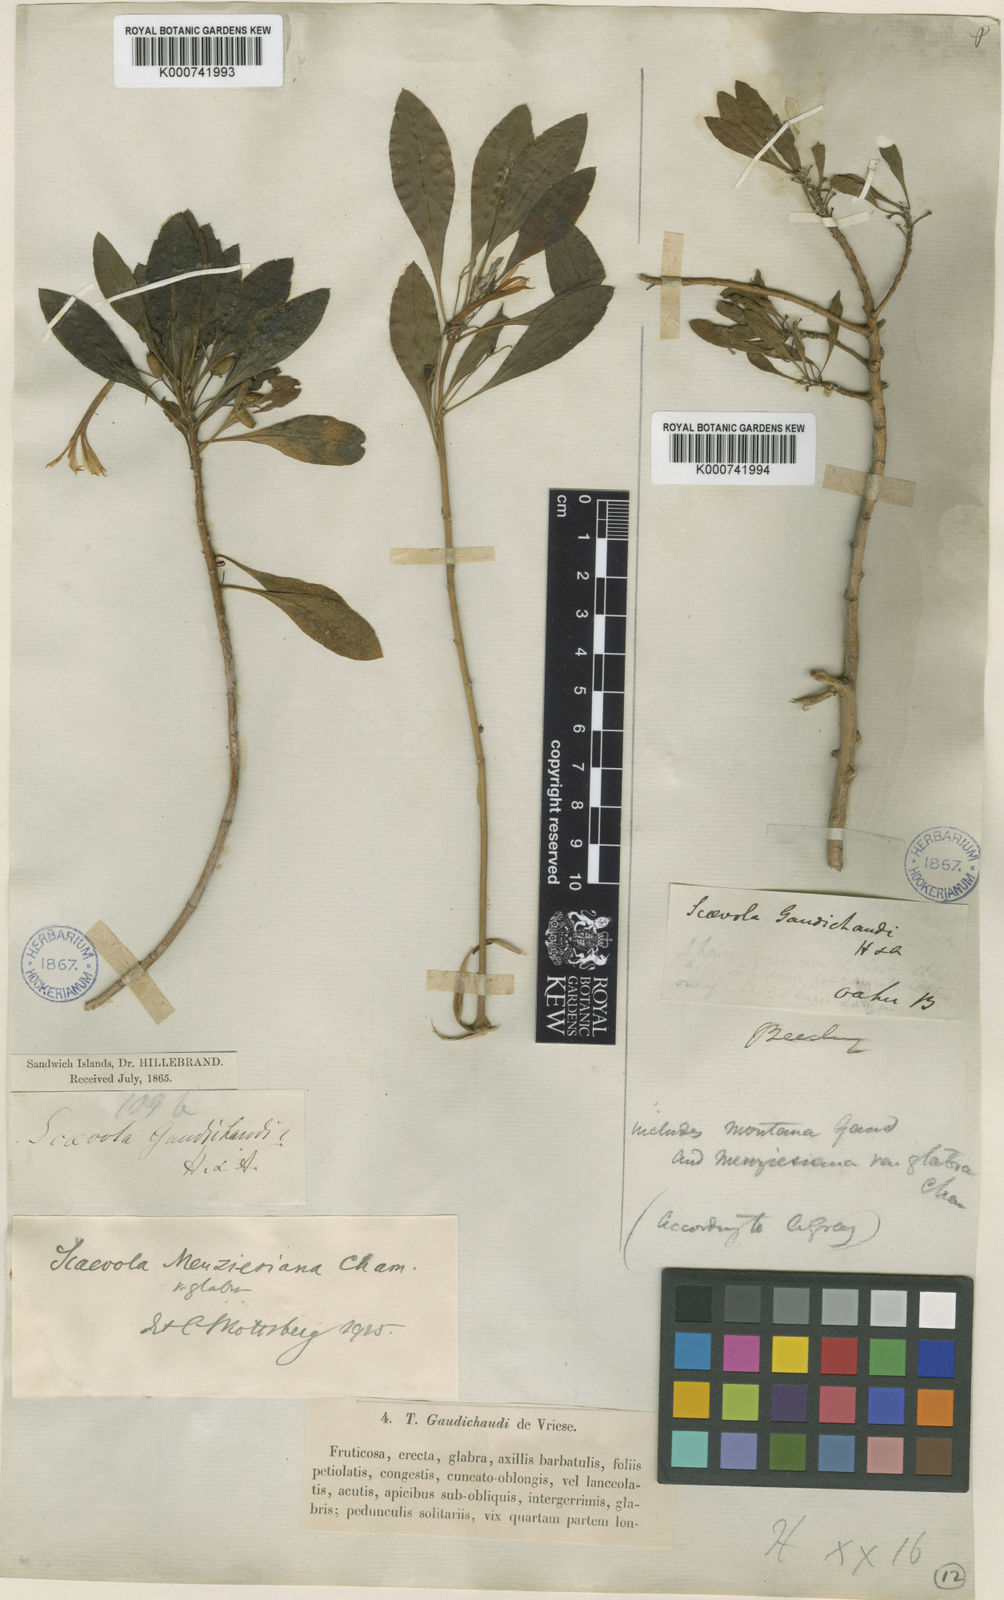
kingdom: Plantae
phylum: Tracheophyta
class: Magnoliopsida
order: Asterales
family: Goodeniaceae
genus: Scaevola
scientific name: Scaevola gaudichaudii
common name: Mountain naupaka
